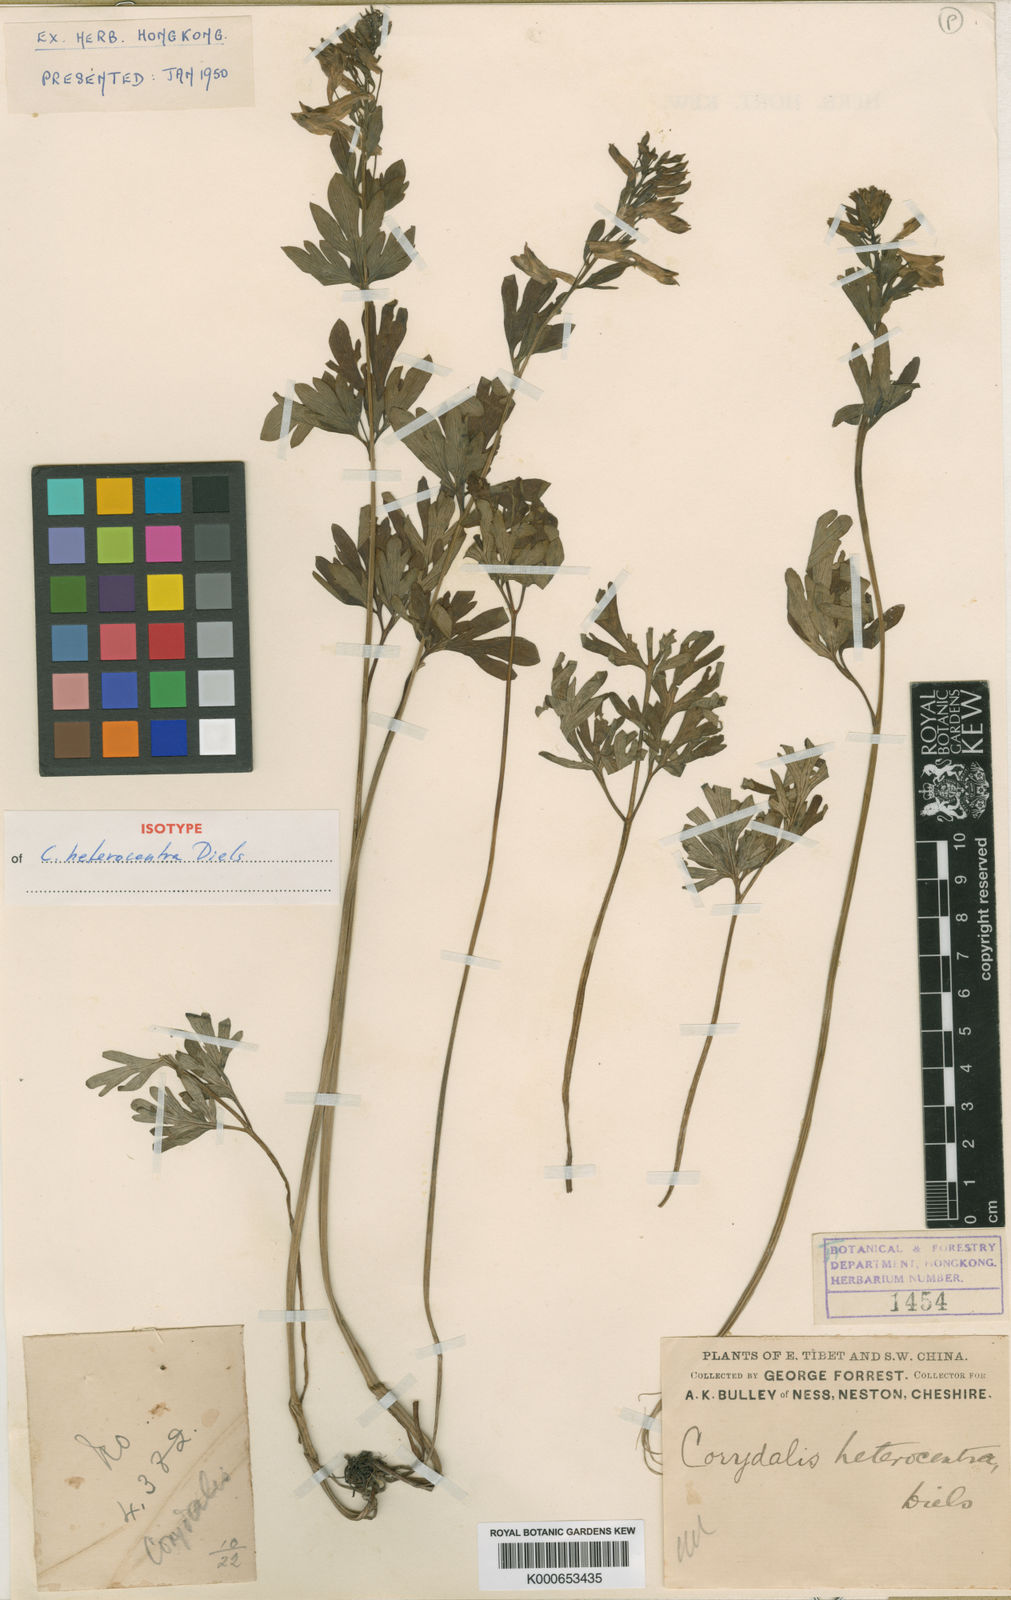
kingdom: Plantae
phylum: Tracheophyta
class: Magnoliopsida
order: Ranunculales
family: Papaveraceae
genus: Corydalis
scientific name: Corydalis heterocentra
